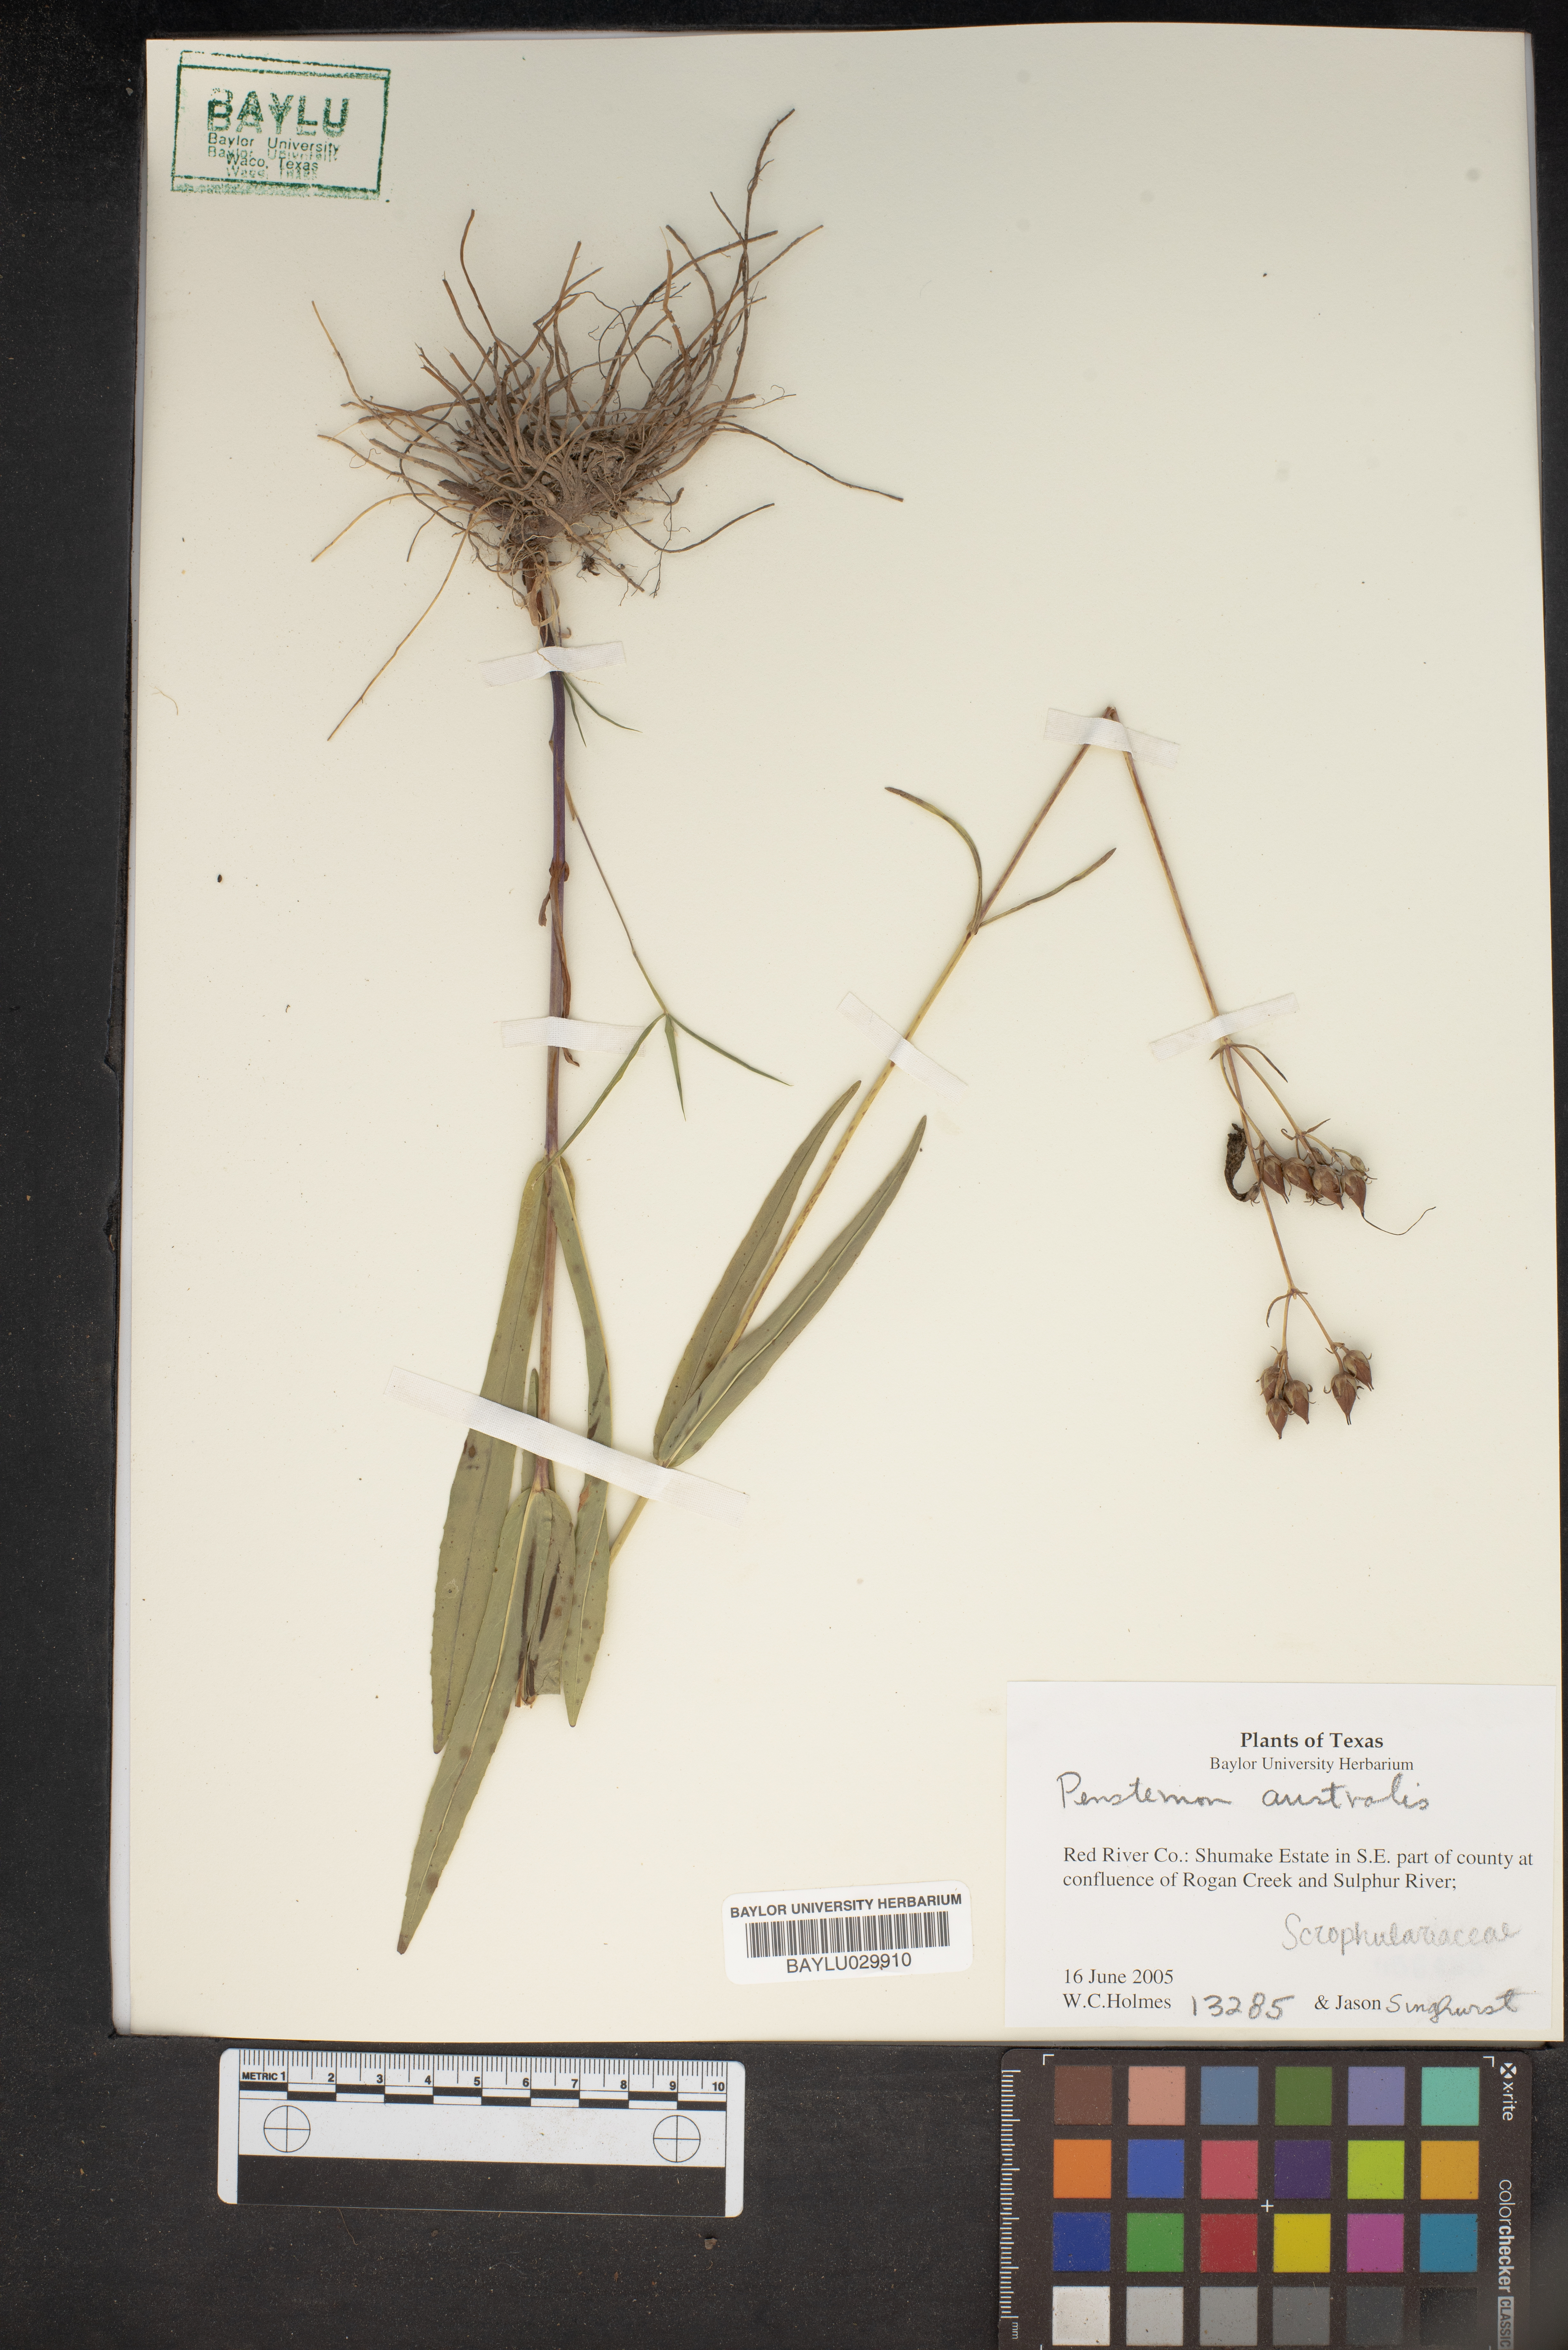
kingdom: Plantae
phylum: Tracheophyta
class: Magnoliopsida
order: Lamiales
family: Plantaginaceae
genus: Penstemon
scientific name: Penstemon australis
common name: Southeastern beardtongue
